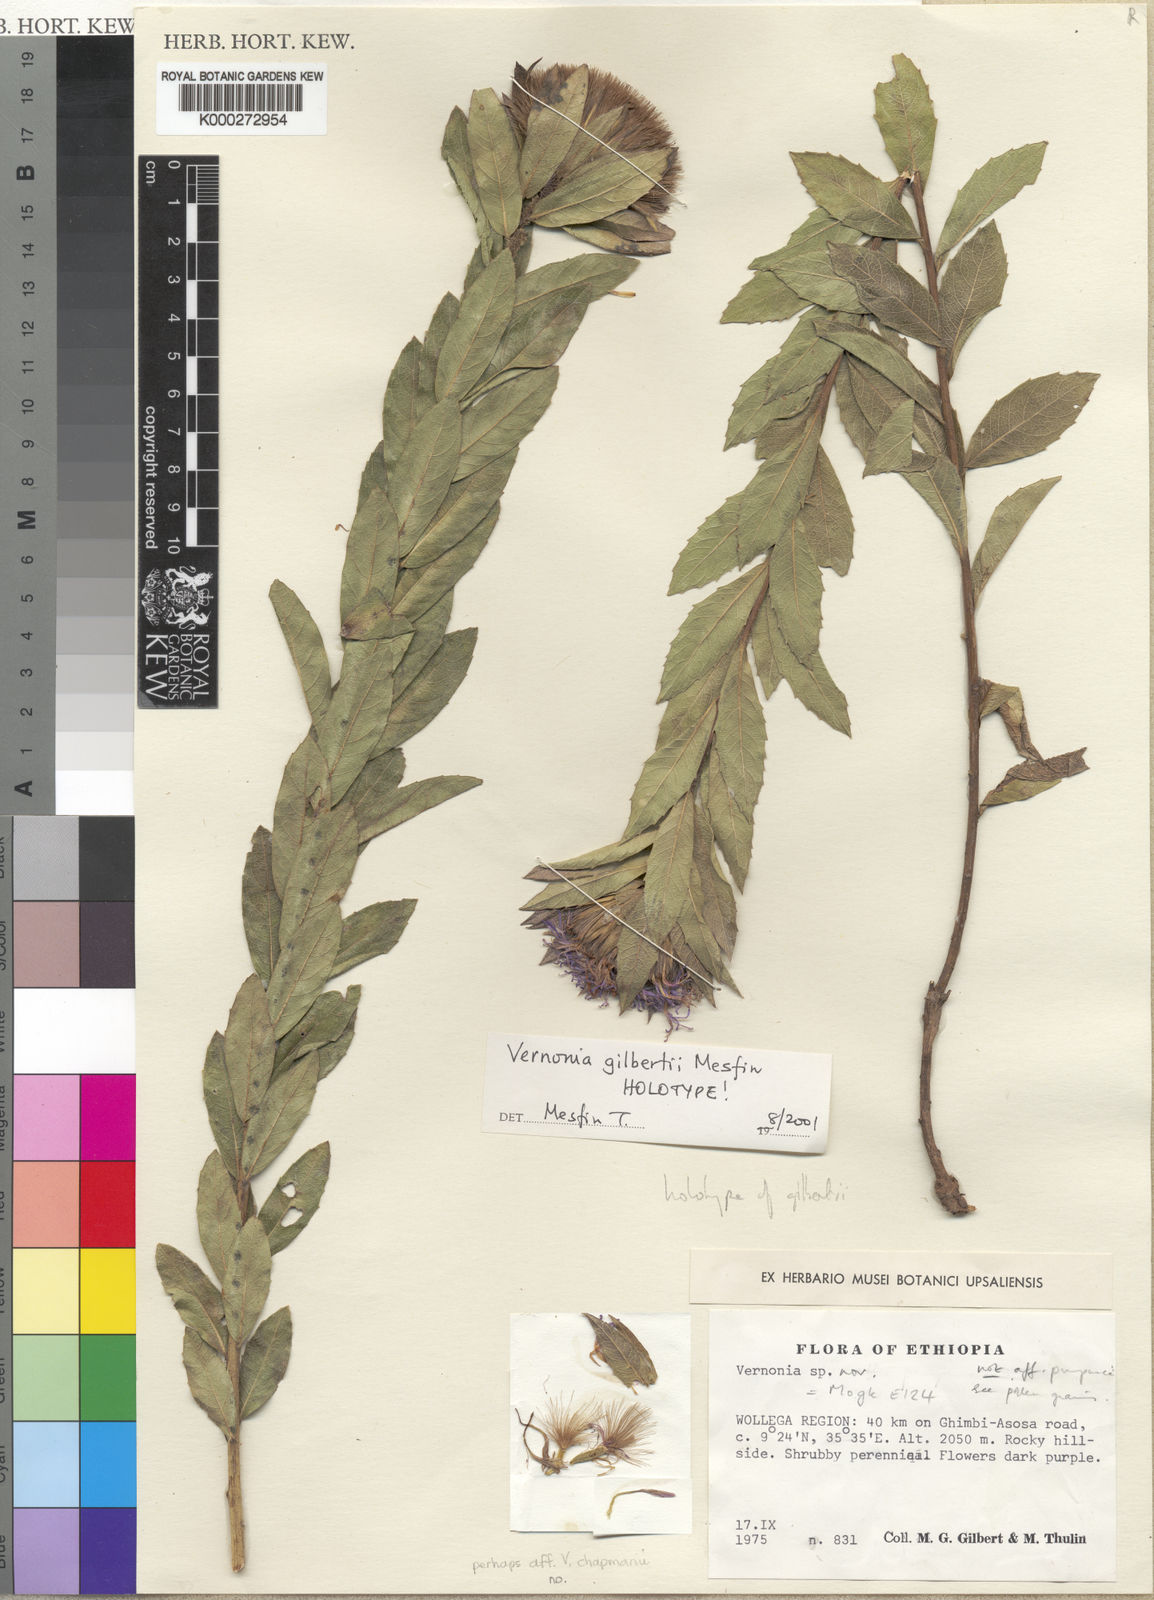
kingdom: Plantae
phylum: Tracheophyta
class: Magnoliopsida
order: Asterales
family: Asteraceae
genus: Vernonia
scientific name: Vernonia gilbertii
